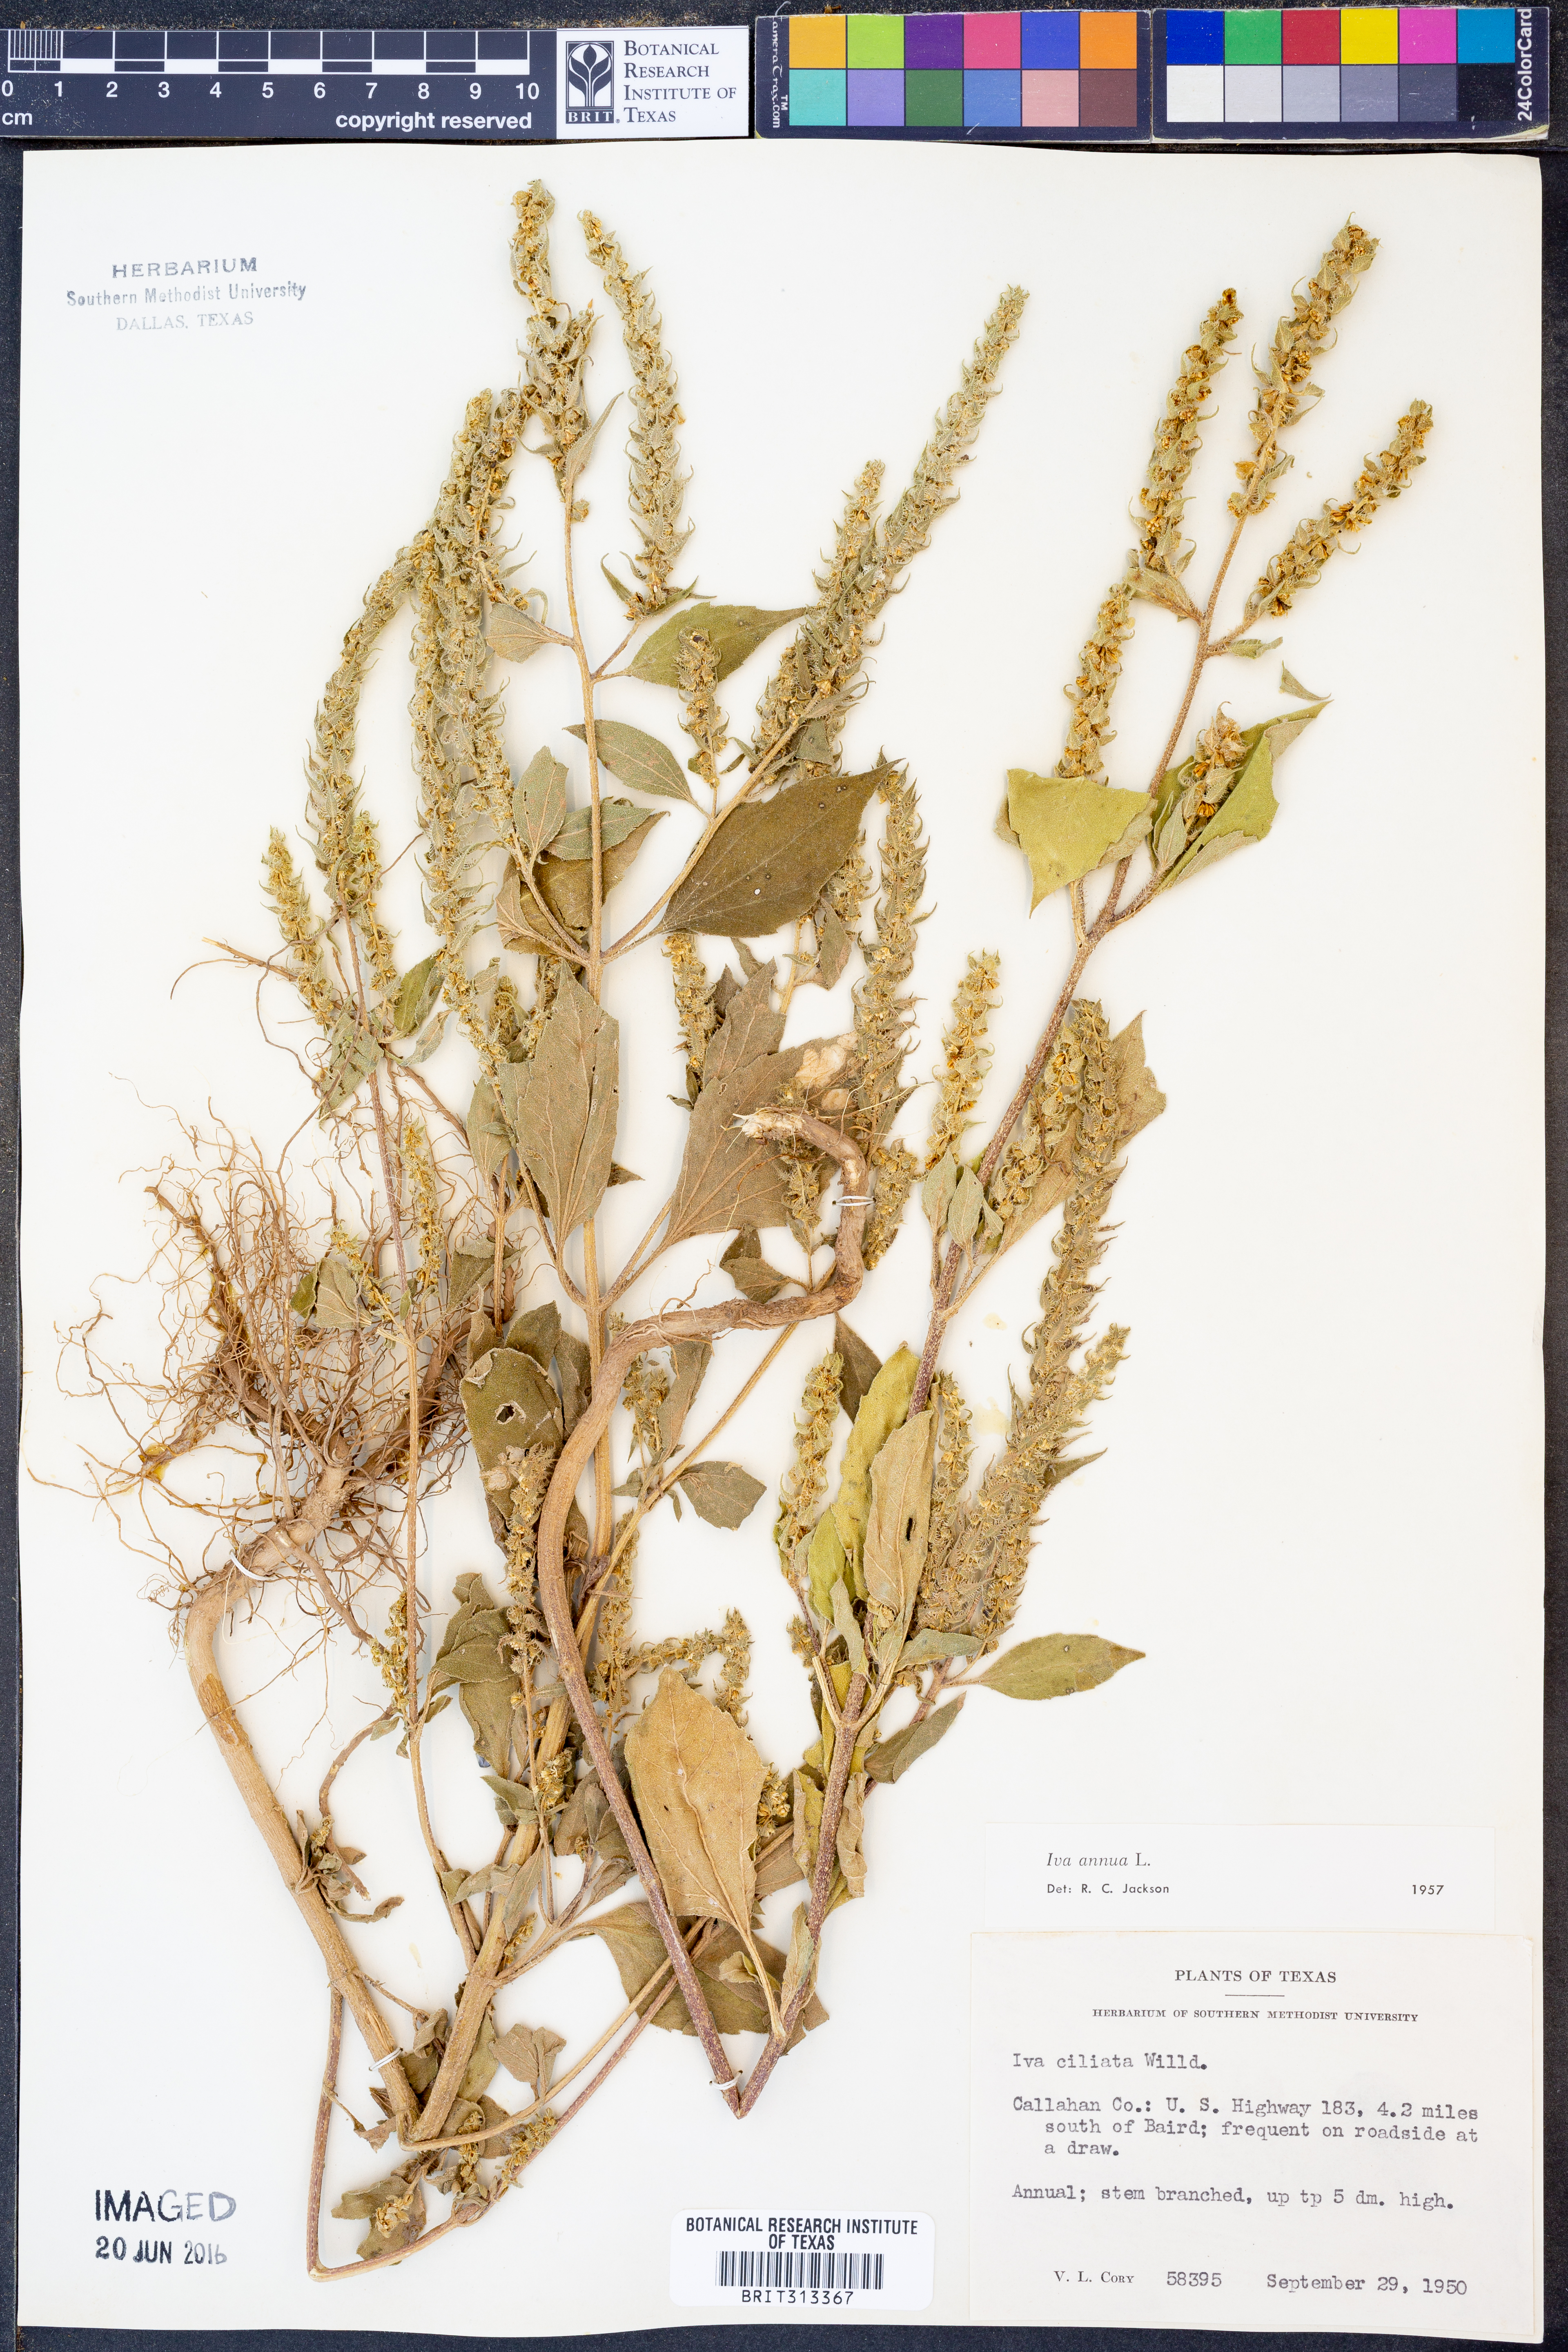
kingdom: Plantae
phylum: Tracheophyta
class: Magnoliopsida
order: Asterales
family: Asteraceae
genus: Iva
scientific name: Iva annua
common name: Marsh-elder
